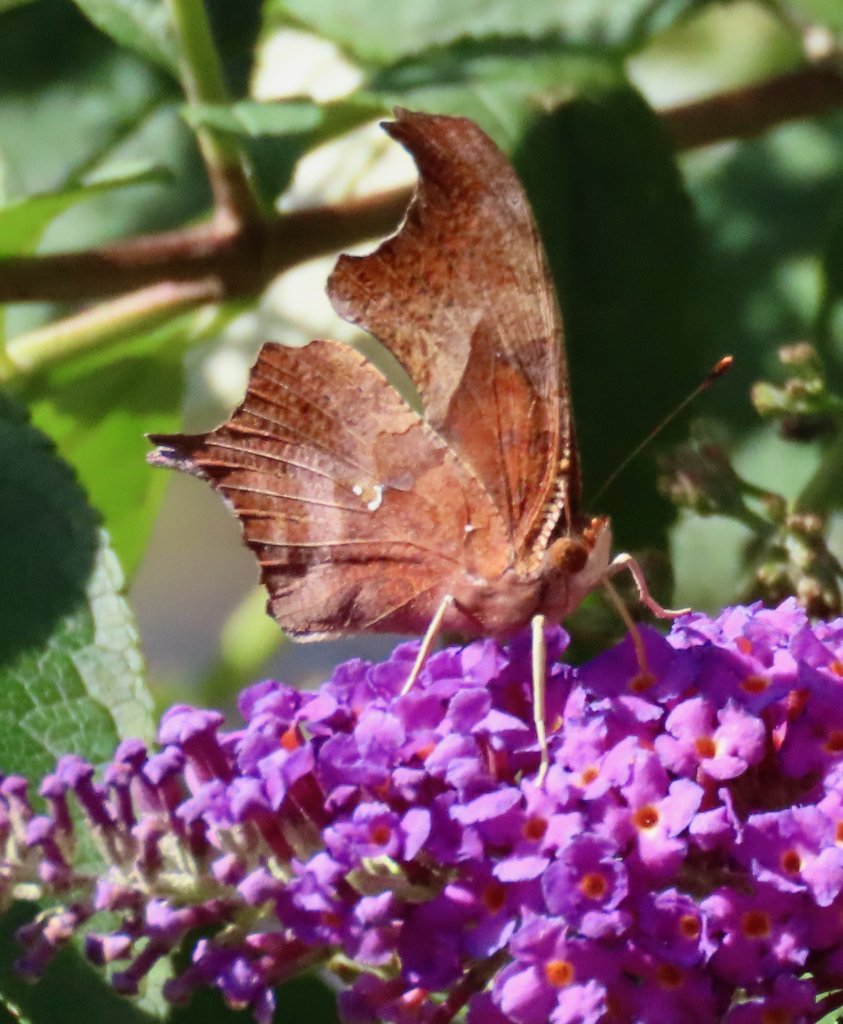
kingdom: Animalia
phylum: Arthropoda
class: Insecta
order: Lepidoptera
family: Nymphalidae
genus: Polygonia
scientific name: Polygonia interrogationis
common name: Question Mark
